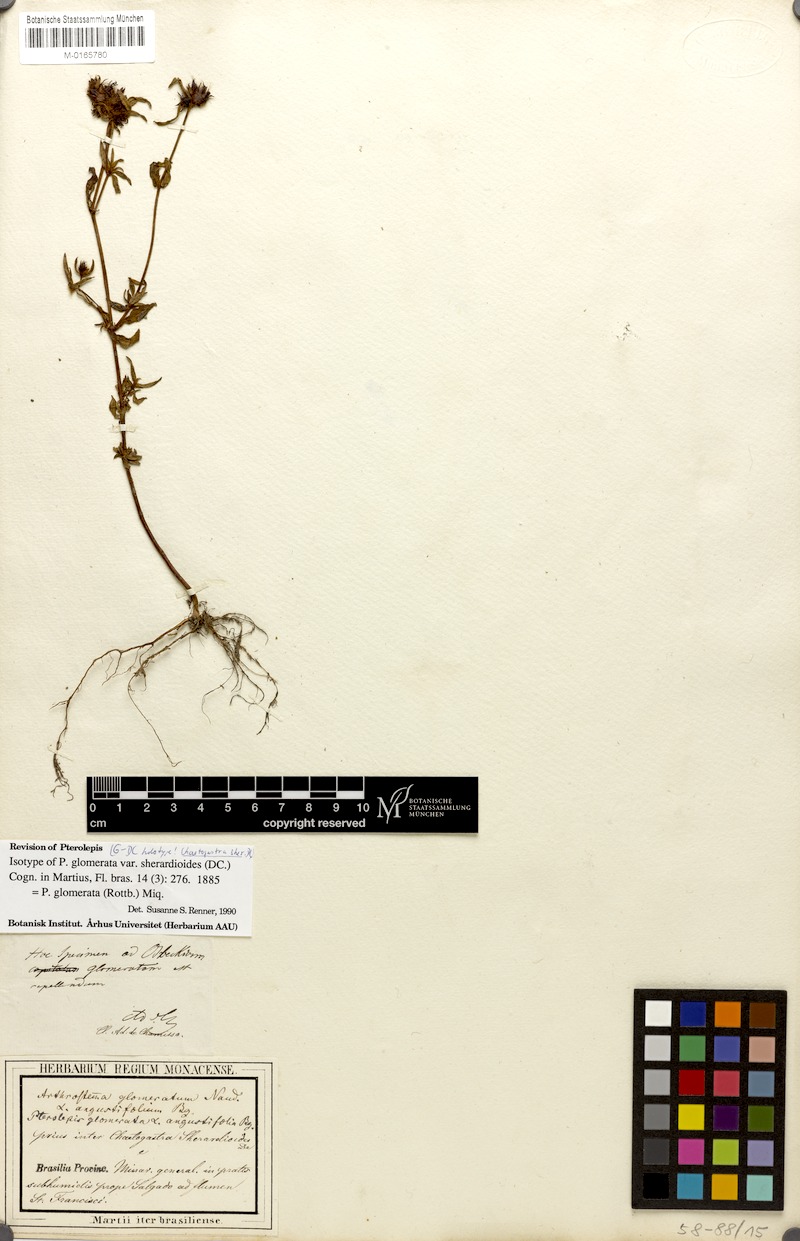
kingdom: Plantae
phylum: Tracheophyta
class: Magnoliopsida
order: Myrtales
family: Melastomataceae
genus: Pterolepis
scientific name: Pterolepis glomerata
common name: False meadowbeauty
